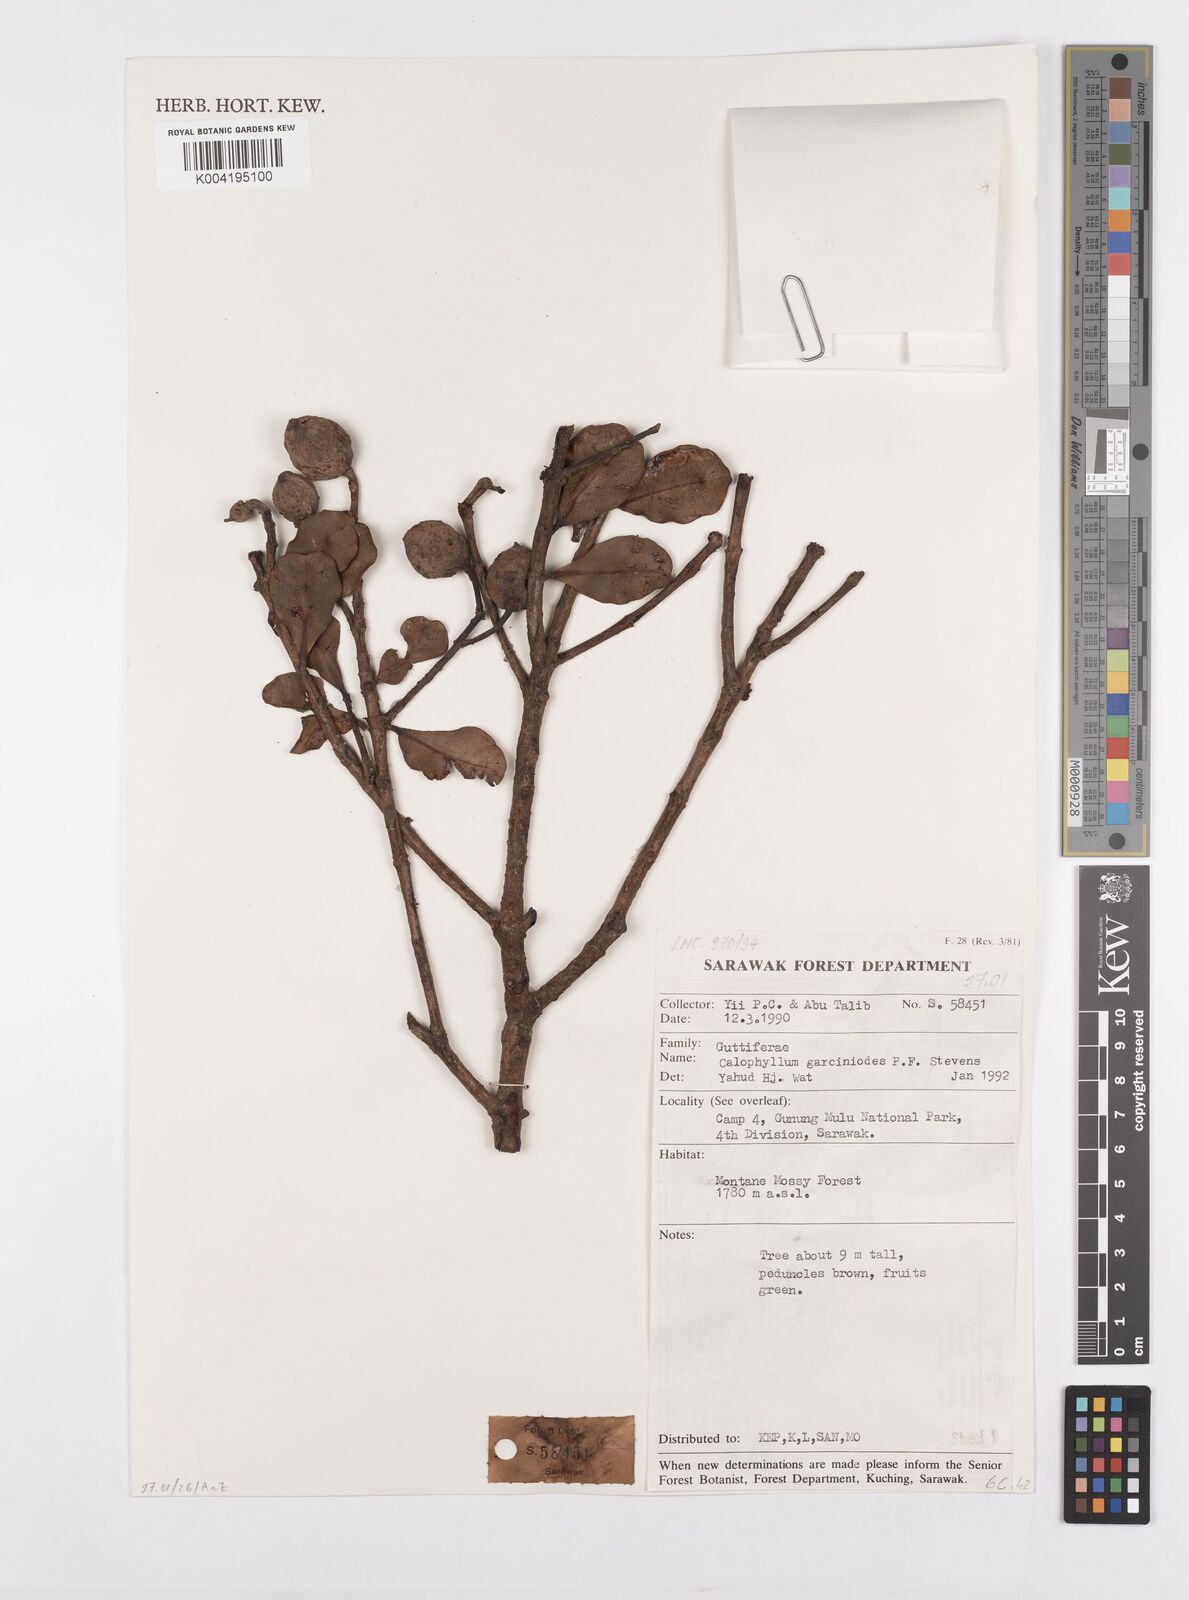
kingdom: Plantae
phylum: Tracheophyta
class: Magnoliopsida
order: Malpighiales
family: Calophyllaceae
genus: Calophyllum
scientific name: Calophyllum garcinioides
